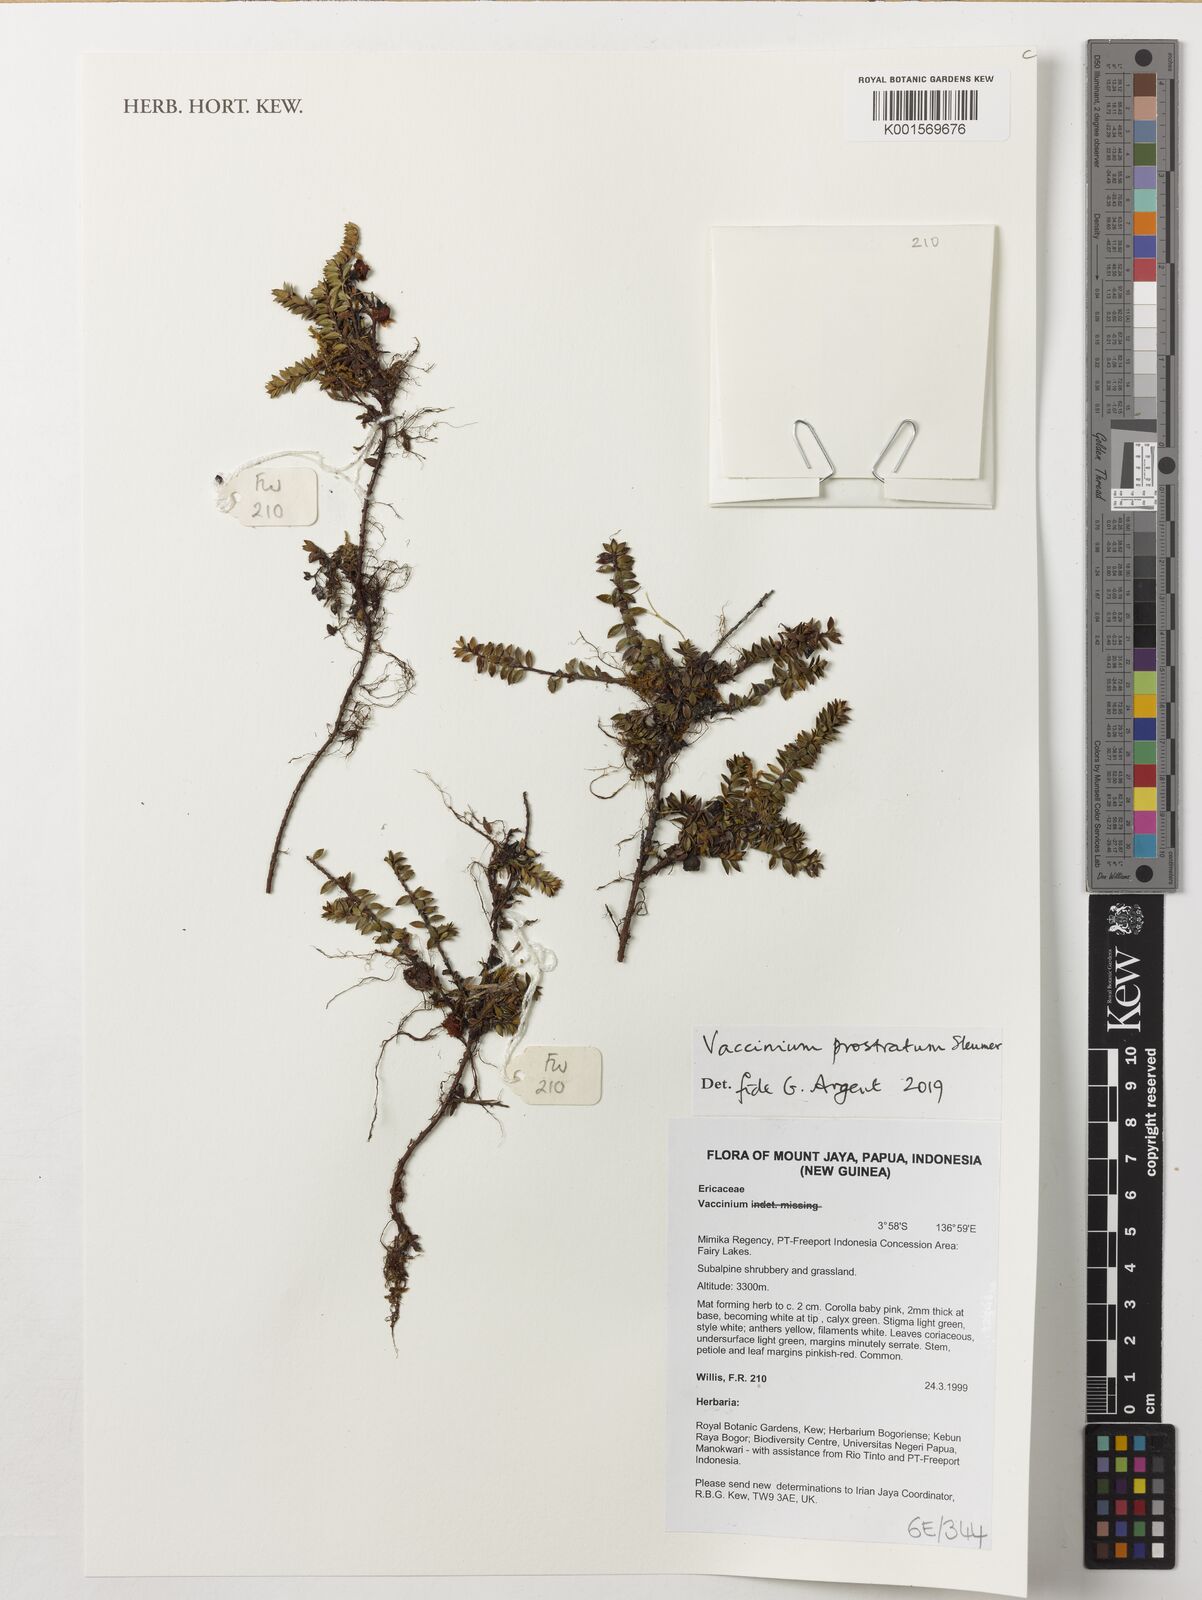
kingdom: Plantae
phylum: Tracheophyta
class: Magnoliopsida
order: Ericales
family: Ericaceae
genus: Vaccinium
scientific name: Vaccinium prostratum
